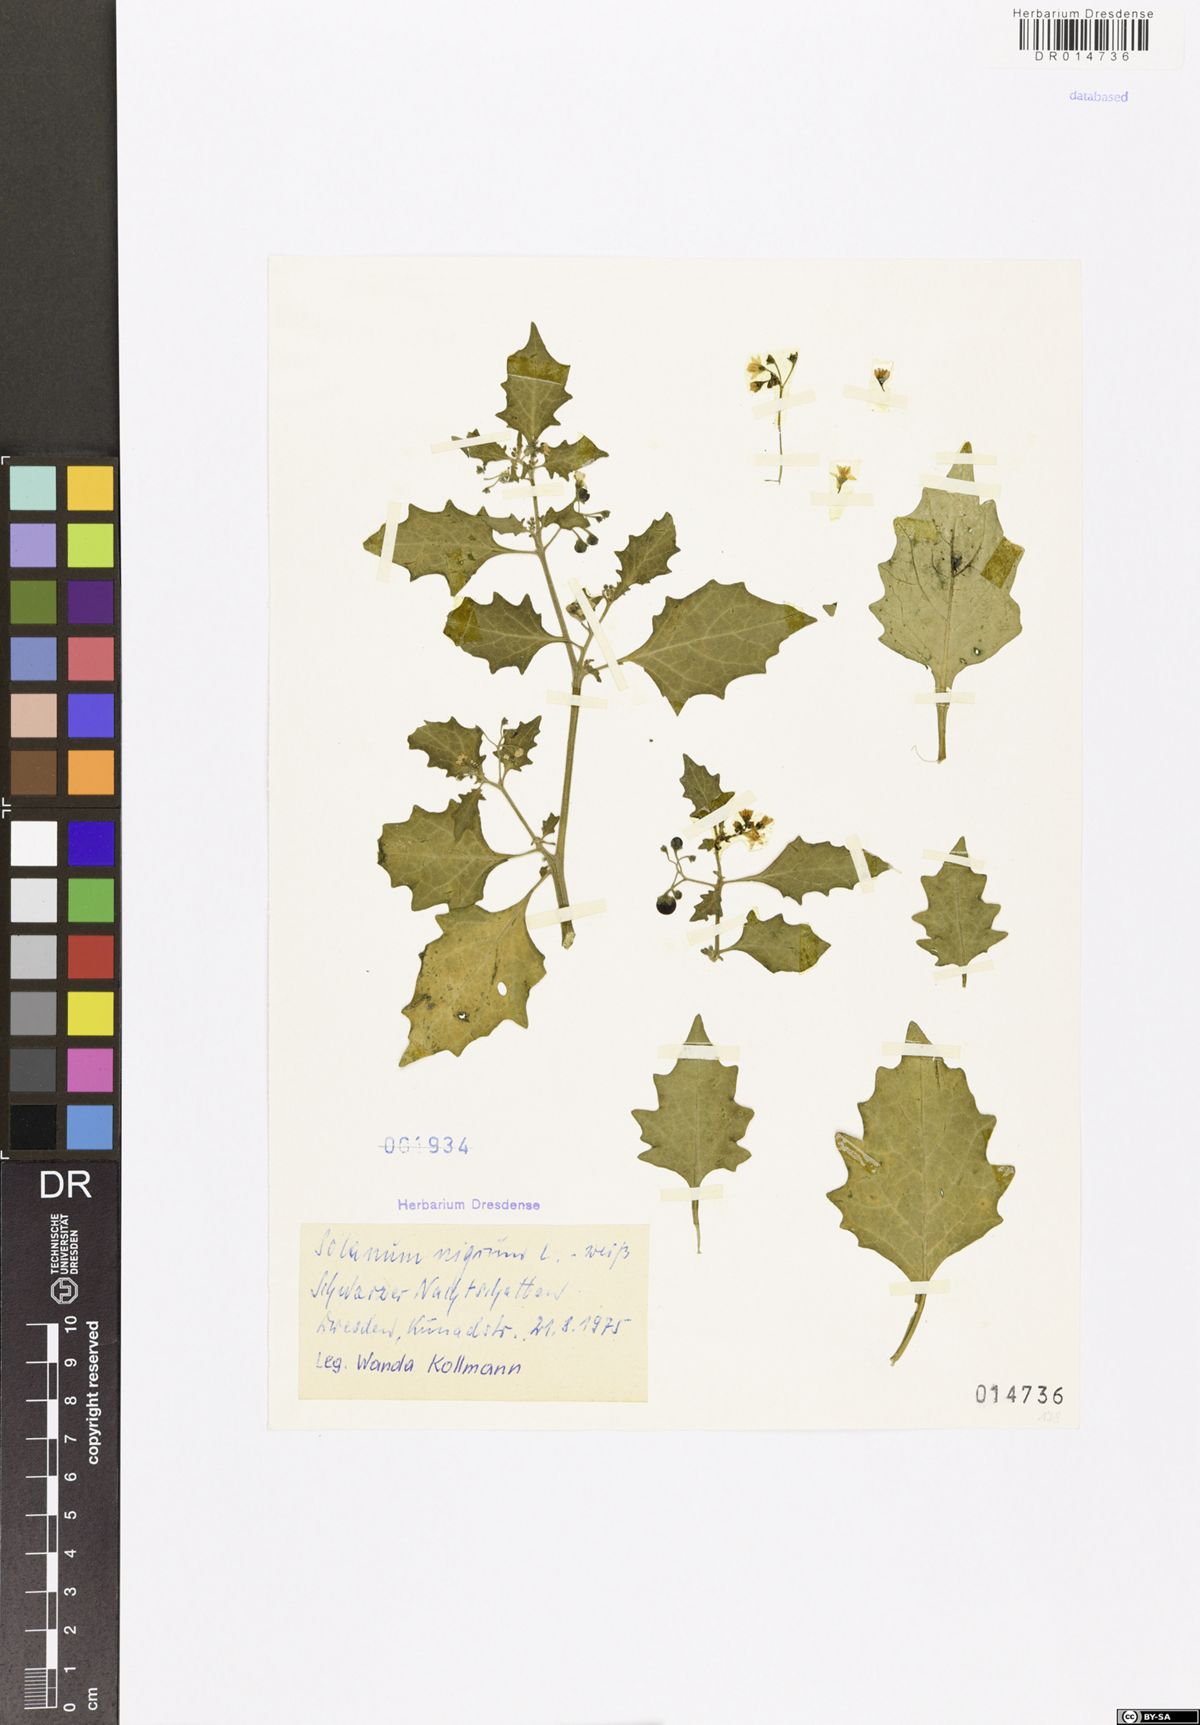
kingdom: Plantae
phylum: Tracheophyta
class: Magnoliopsida
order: Solanales
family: Solanaceae
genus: Solanum
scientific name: Solanum nigrum
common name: Black nightshade
